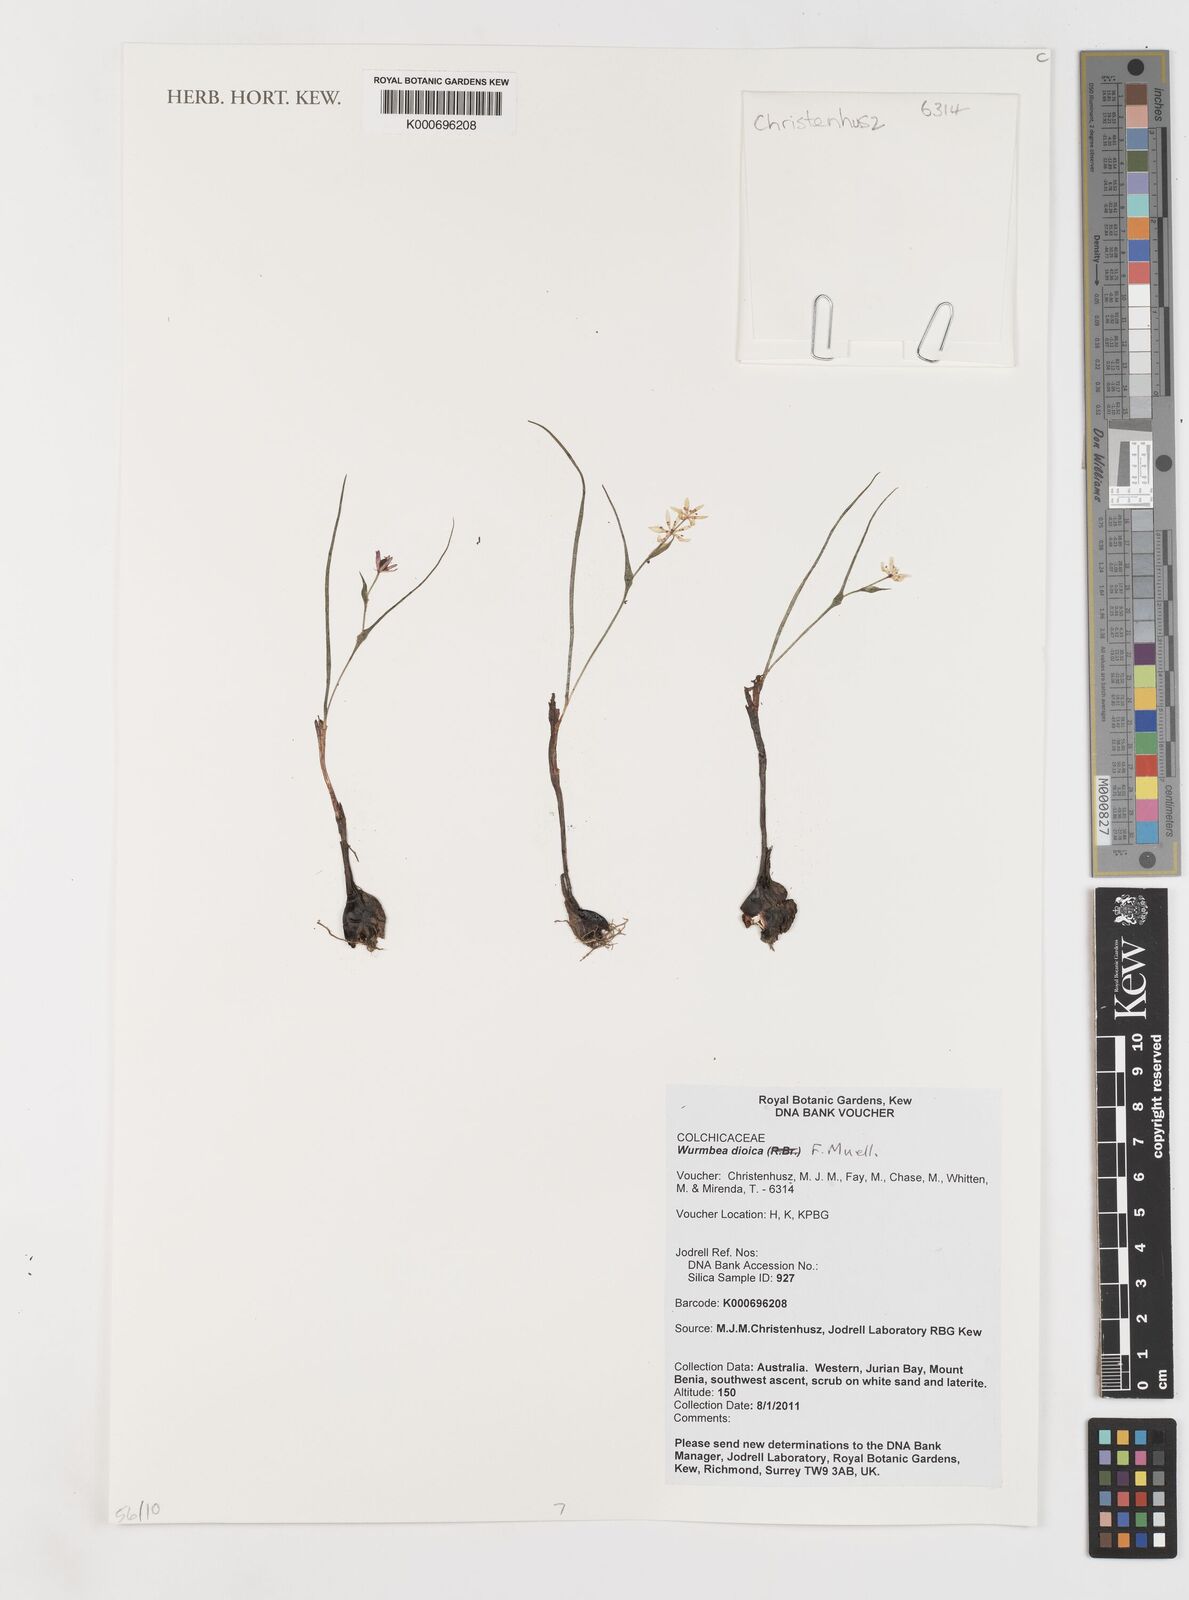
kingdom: Plantae
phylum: Tracheophyta
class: Liliopsida
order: Liliales
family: Colchicaceae
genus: Wurmbea
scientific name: Wurmbea dioica
